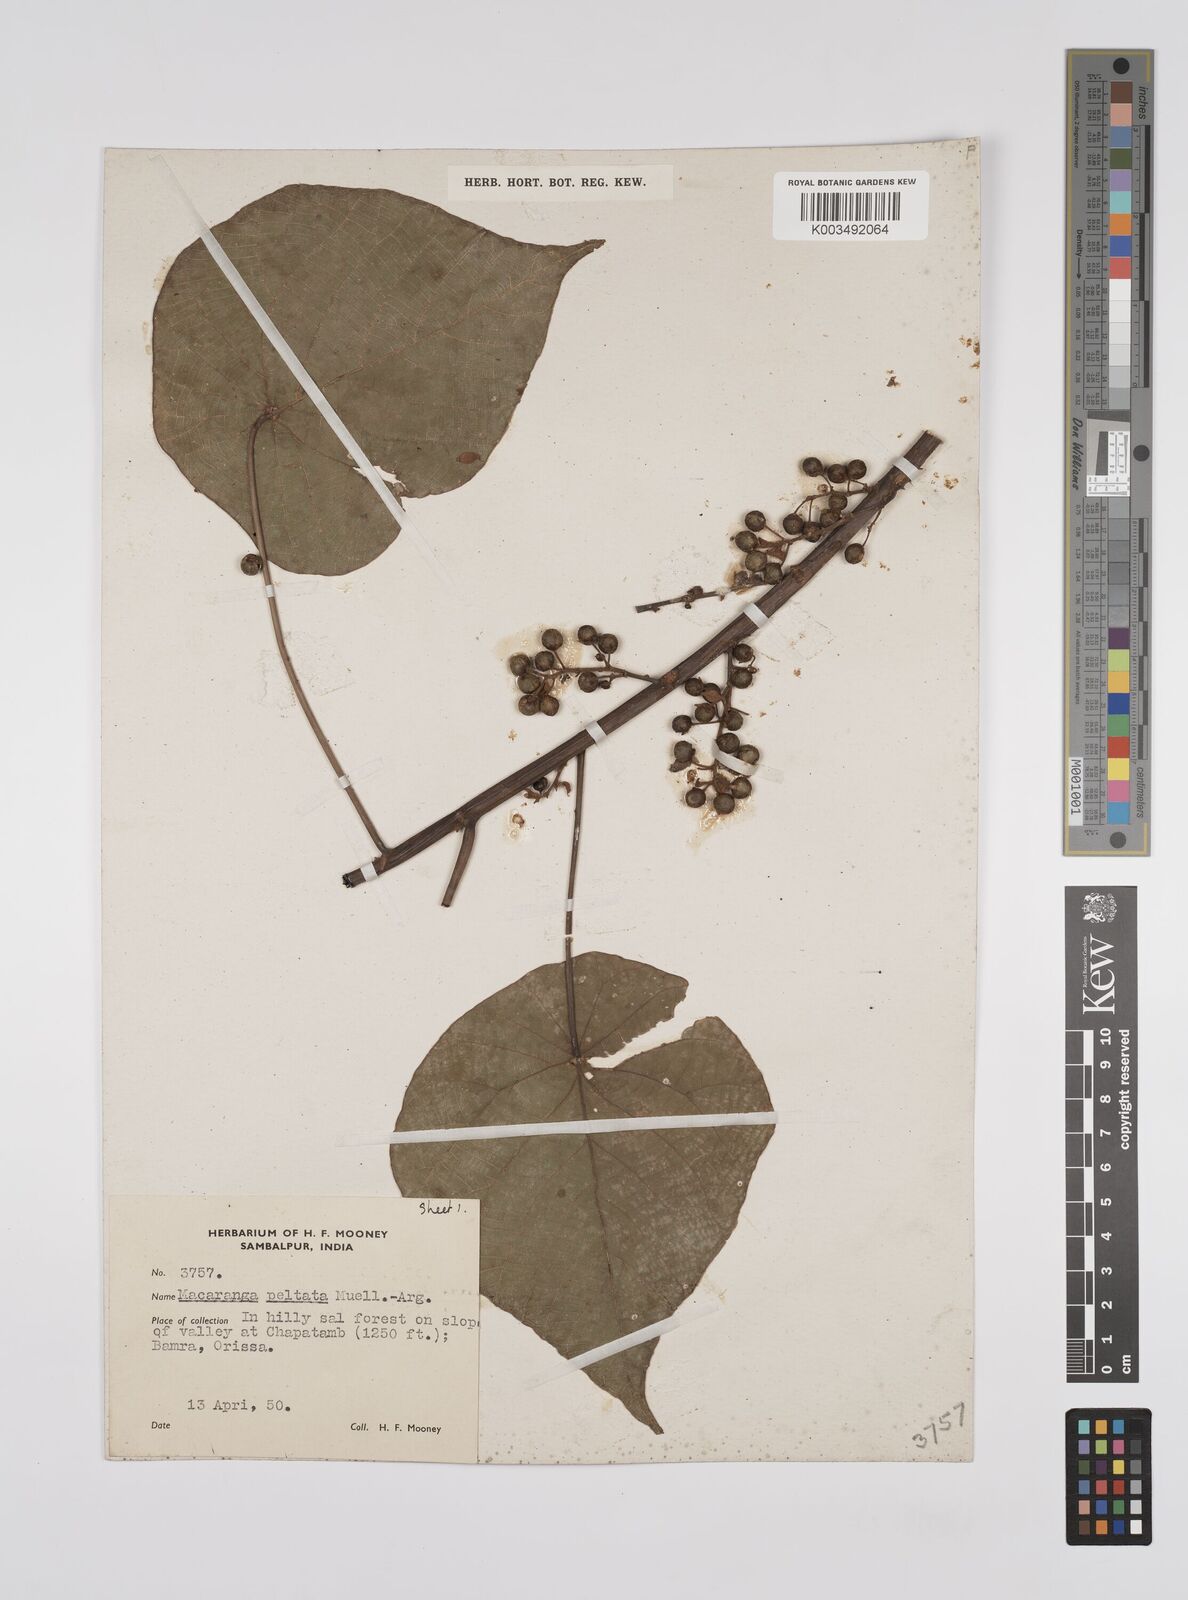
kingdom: Plantae
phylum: Tracheophyta
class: Magnoliopsida
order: Malpighiales
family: Euphorbiaceae
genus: Macaranga
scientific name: Macaranga peltata
